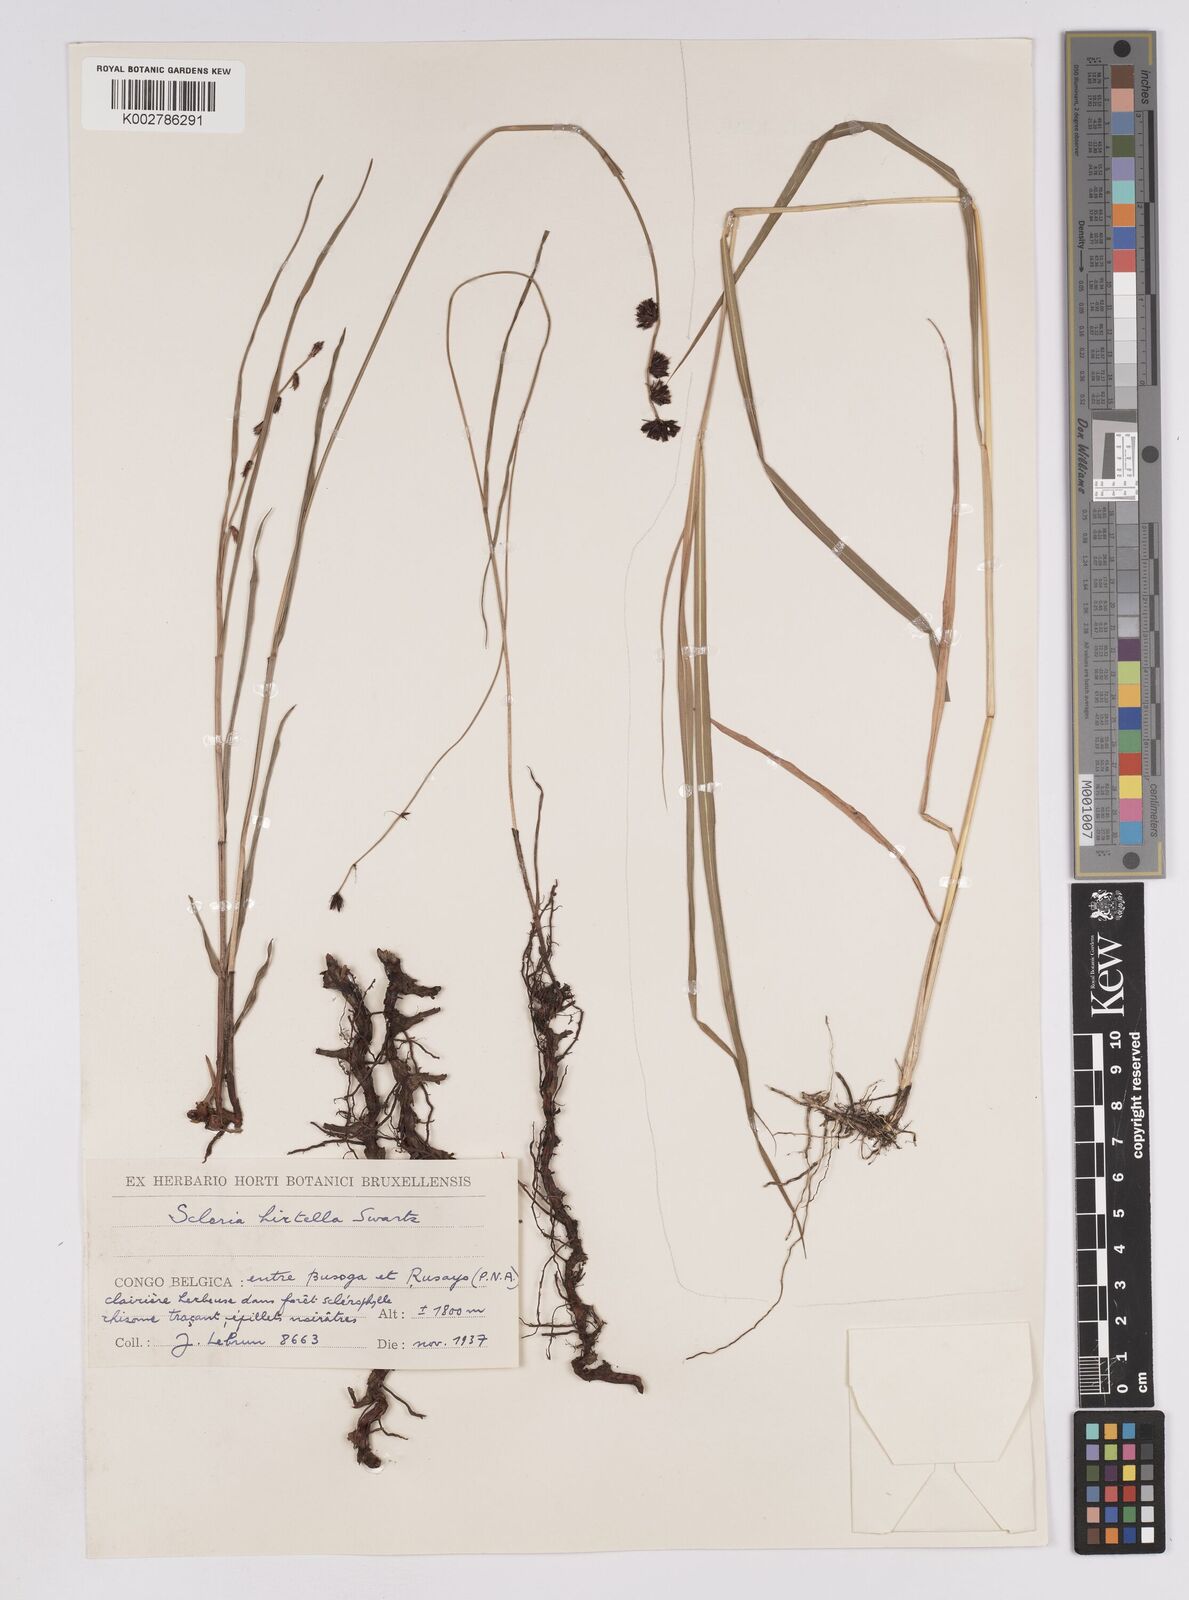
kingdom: Plantae
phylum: Tracheophyta
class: Liliopsida
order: Poales
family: Cyperaceae
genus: Scleria
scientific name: Scleria brownii
